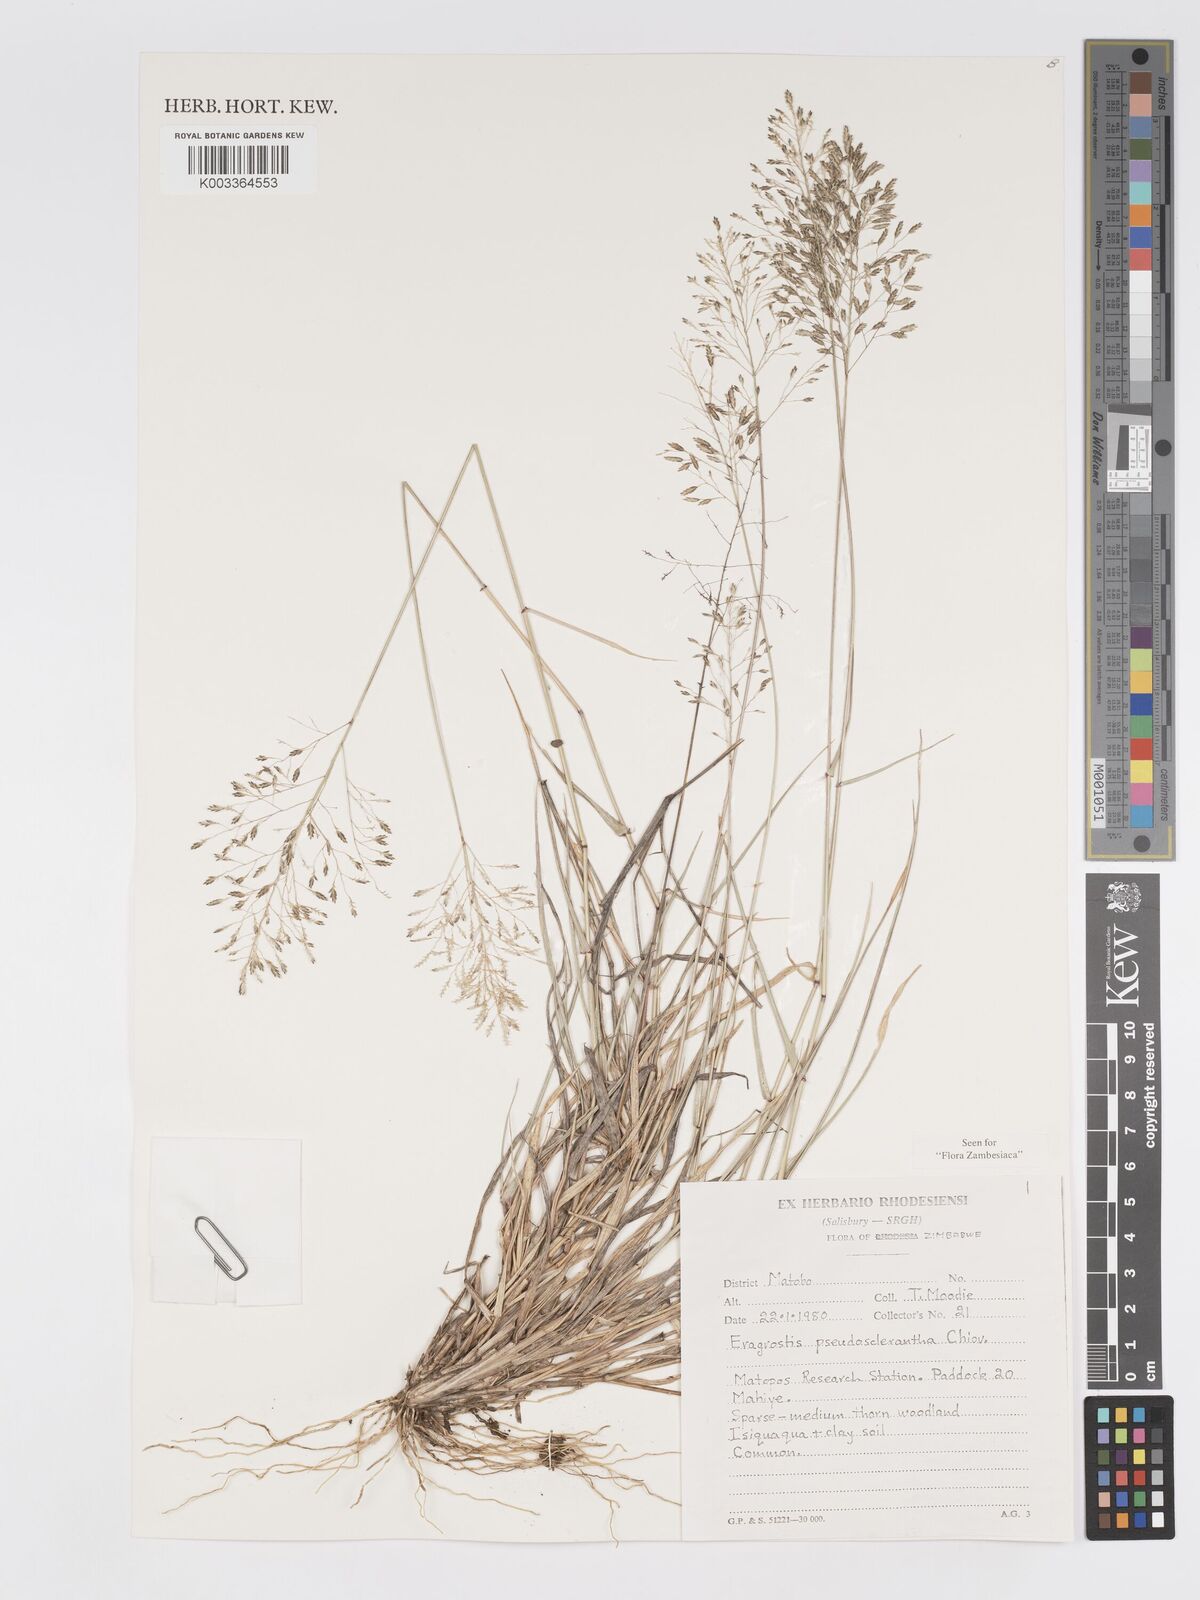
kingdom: Plantae
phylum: Tracheophyta
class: Liliopsida
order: Poales
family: Poaceae
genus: Eragrostis
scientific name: Eragrostis patentipilosa
